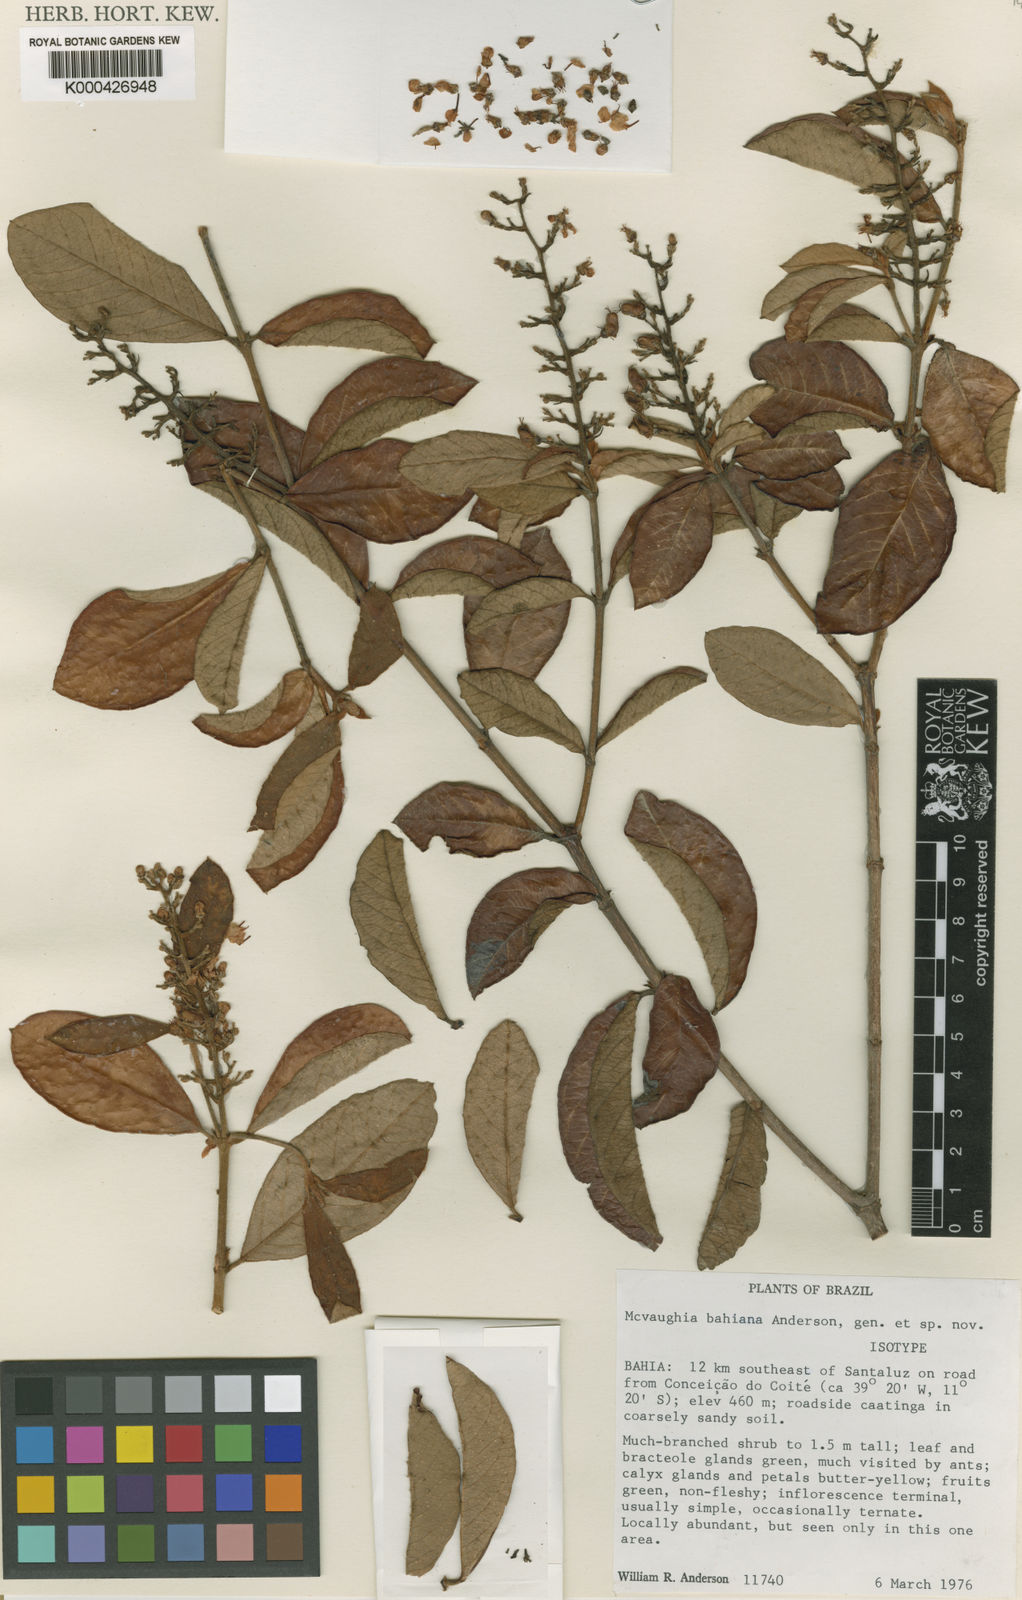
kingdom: Plantae
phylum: Tracheophyta
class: Magnoliopsida
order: Malpighiales
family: Malpighiaceae
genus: Mcvaughia
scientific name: Mcvaughia bahiana
